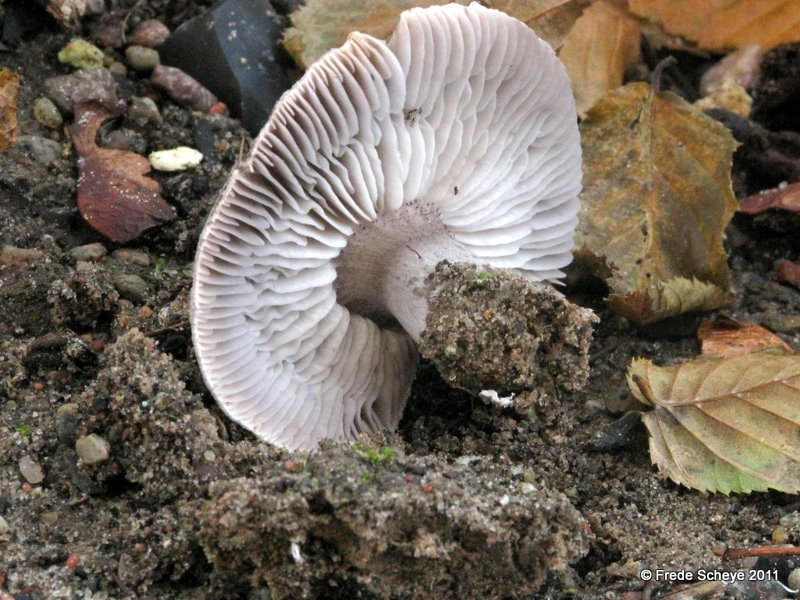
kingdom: Fungi
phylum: Basidiomycota
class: Agaricomycetes
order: Agaricales
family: Tricholomataceae
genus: Tricholoma
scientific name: Tricholoma scalpturatum
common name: gulplettet ridderhat
